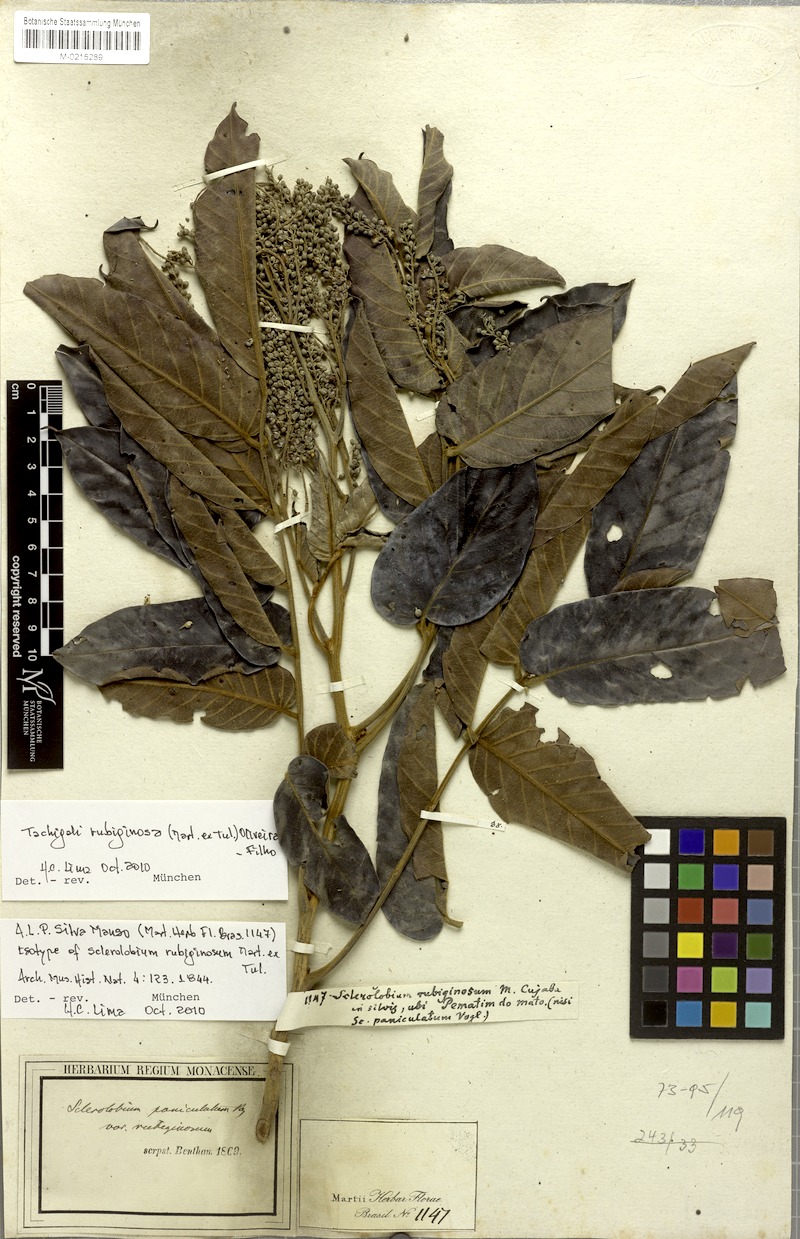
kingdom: Plantae
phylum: Tracheophyta
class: Magnoliopsida
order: Fabales
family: Fabaceae
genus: Tachigali
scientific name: Tachigali rubiginosa
